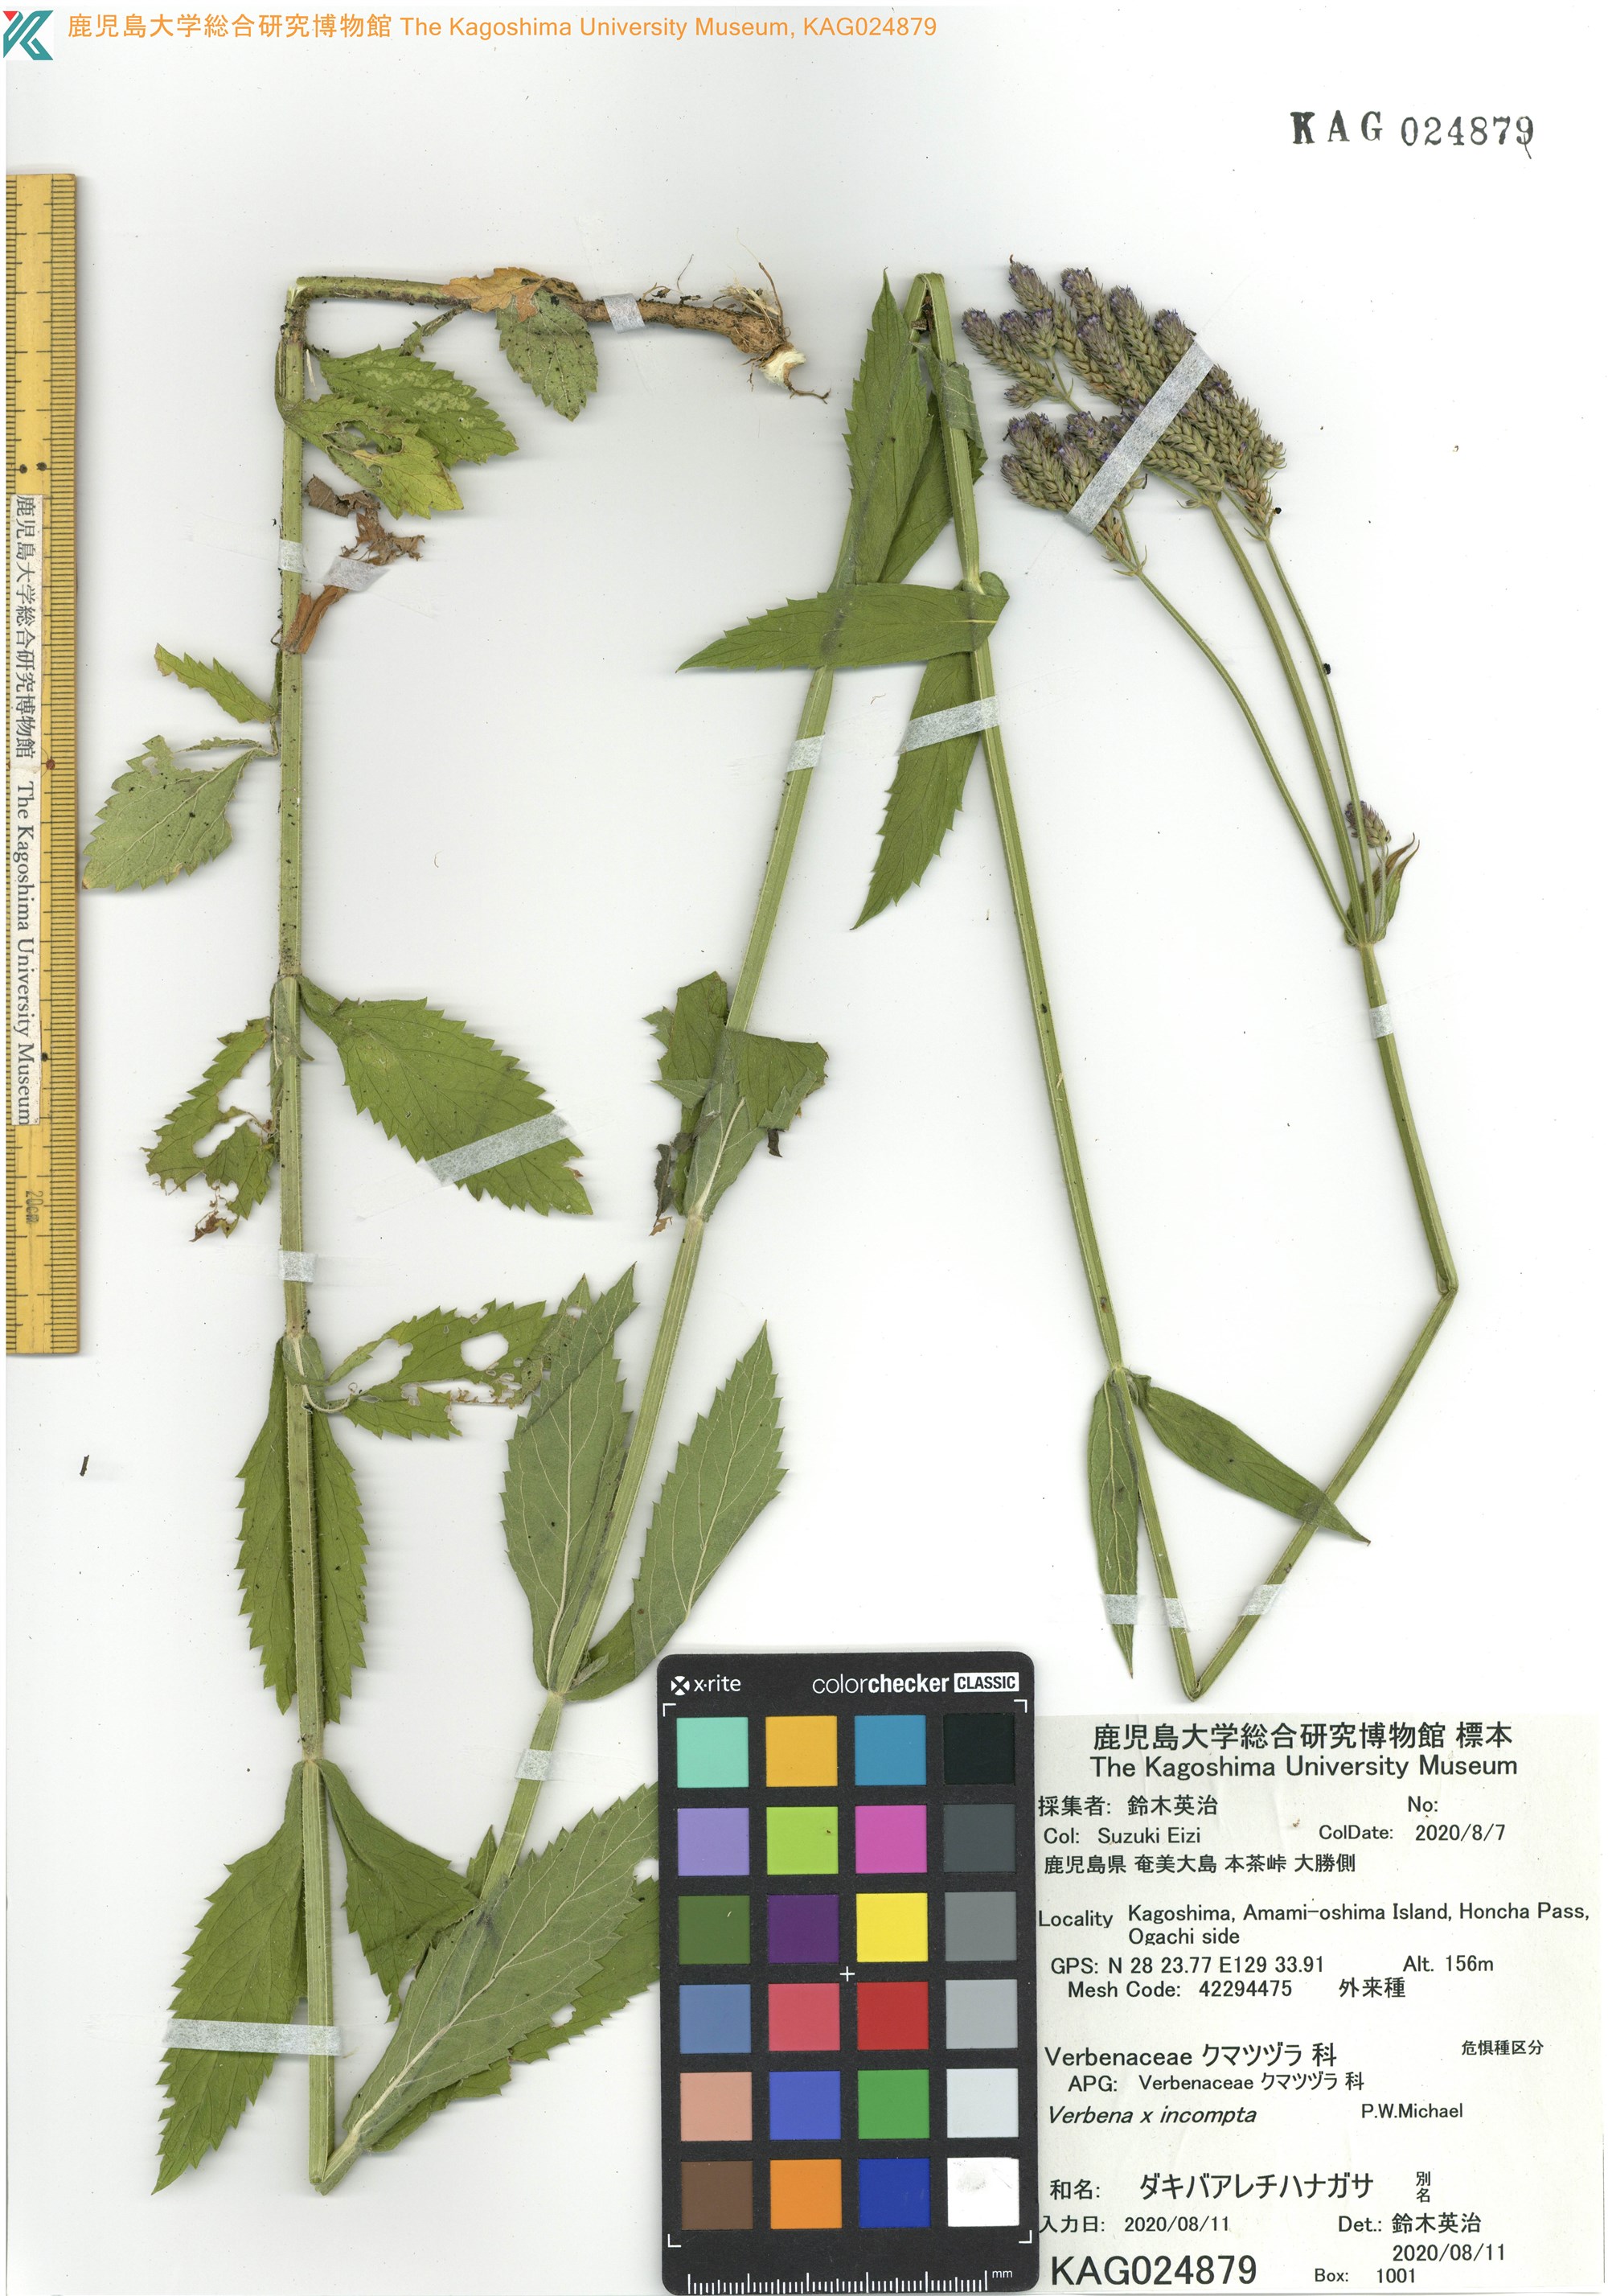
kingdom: Plantae
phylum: Tracheophyta
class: Magnoliopsida
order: Lamiales
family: Verbenaceae
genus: Verbena
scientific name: Verbena incompta
